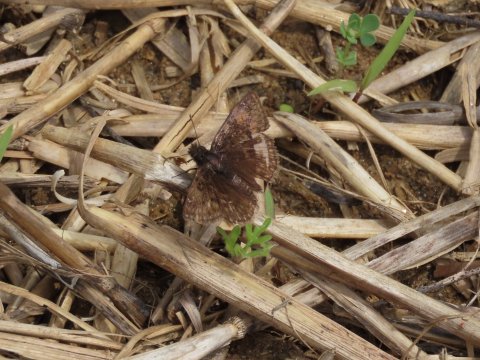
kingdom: Animalia
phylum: Arthropoda
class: Insecta
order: Lepidoptera
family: Hesperiidae
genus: Gesta
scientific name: Gesta
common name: Wild Indigo Duskywing
